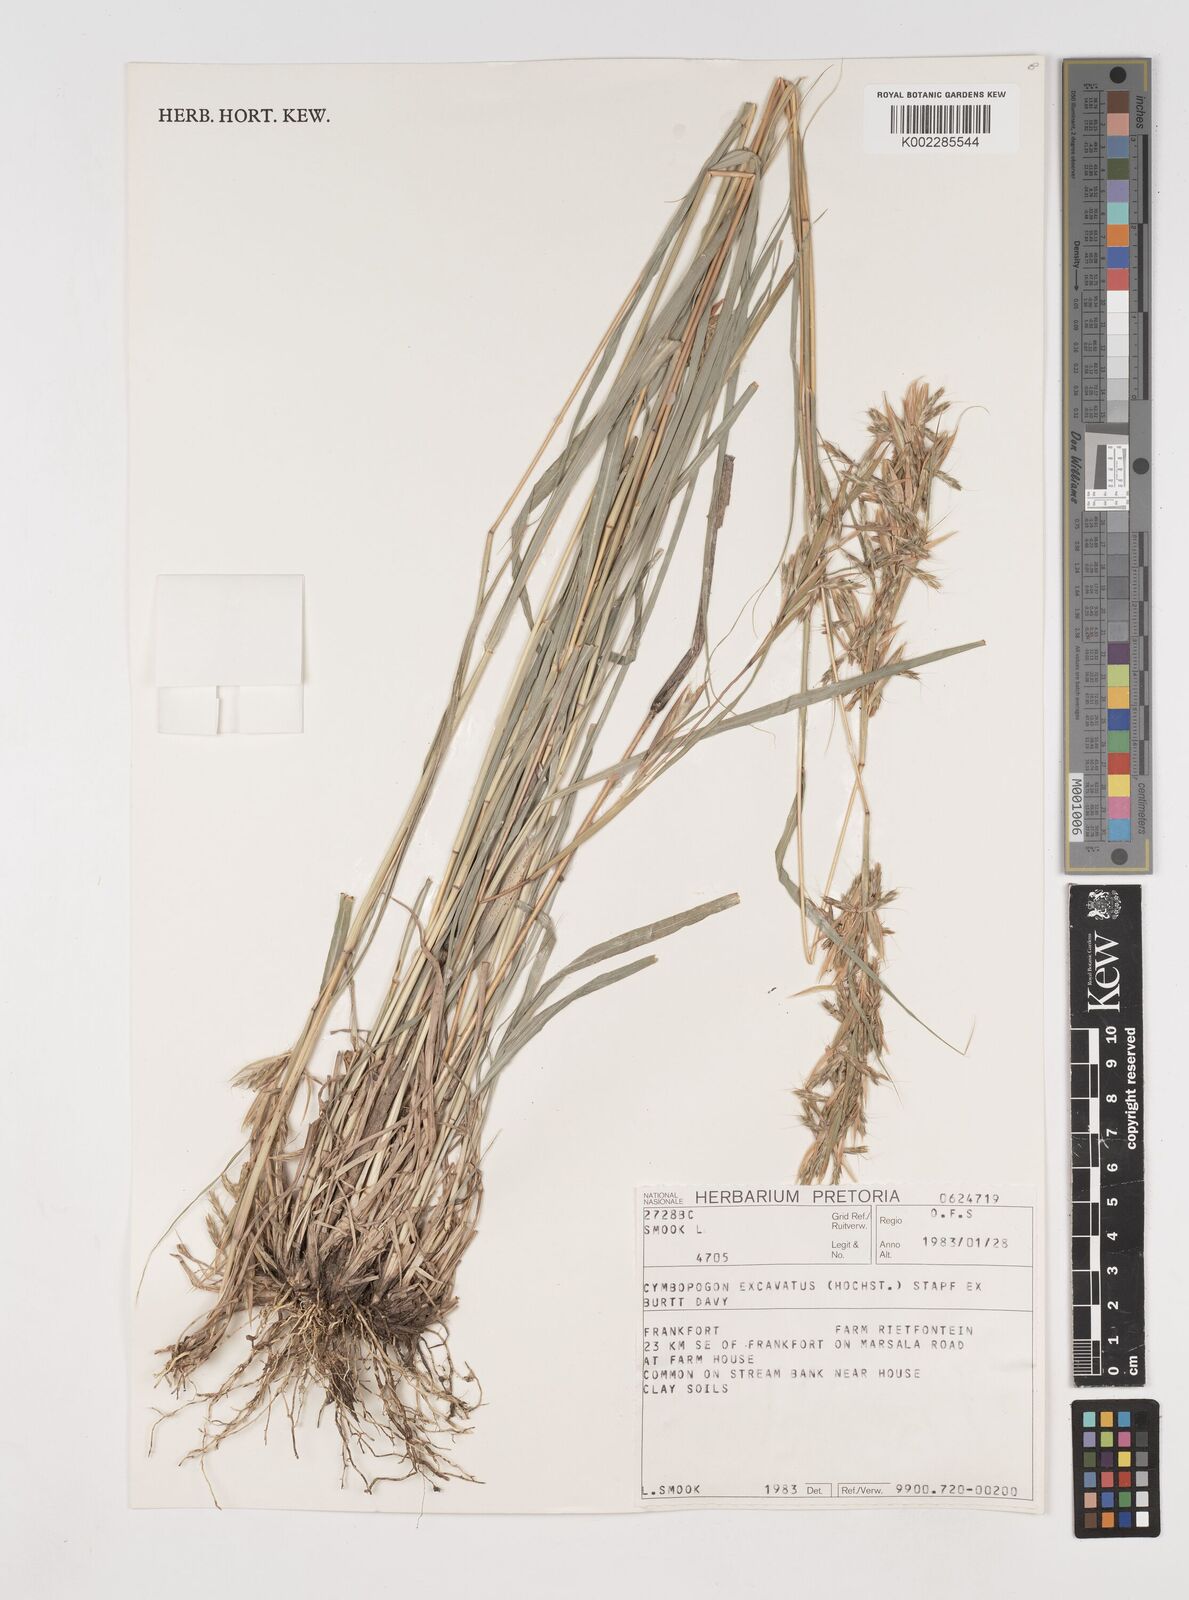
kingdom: Plantae
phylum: Tracheophyta
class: Liliopsida
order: Poales
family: Poaceae
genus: Cymbopogon
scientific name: Cymbopogon caesius
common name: Kachi grass
